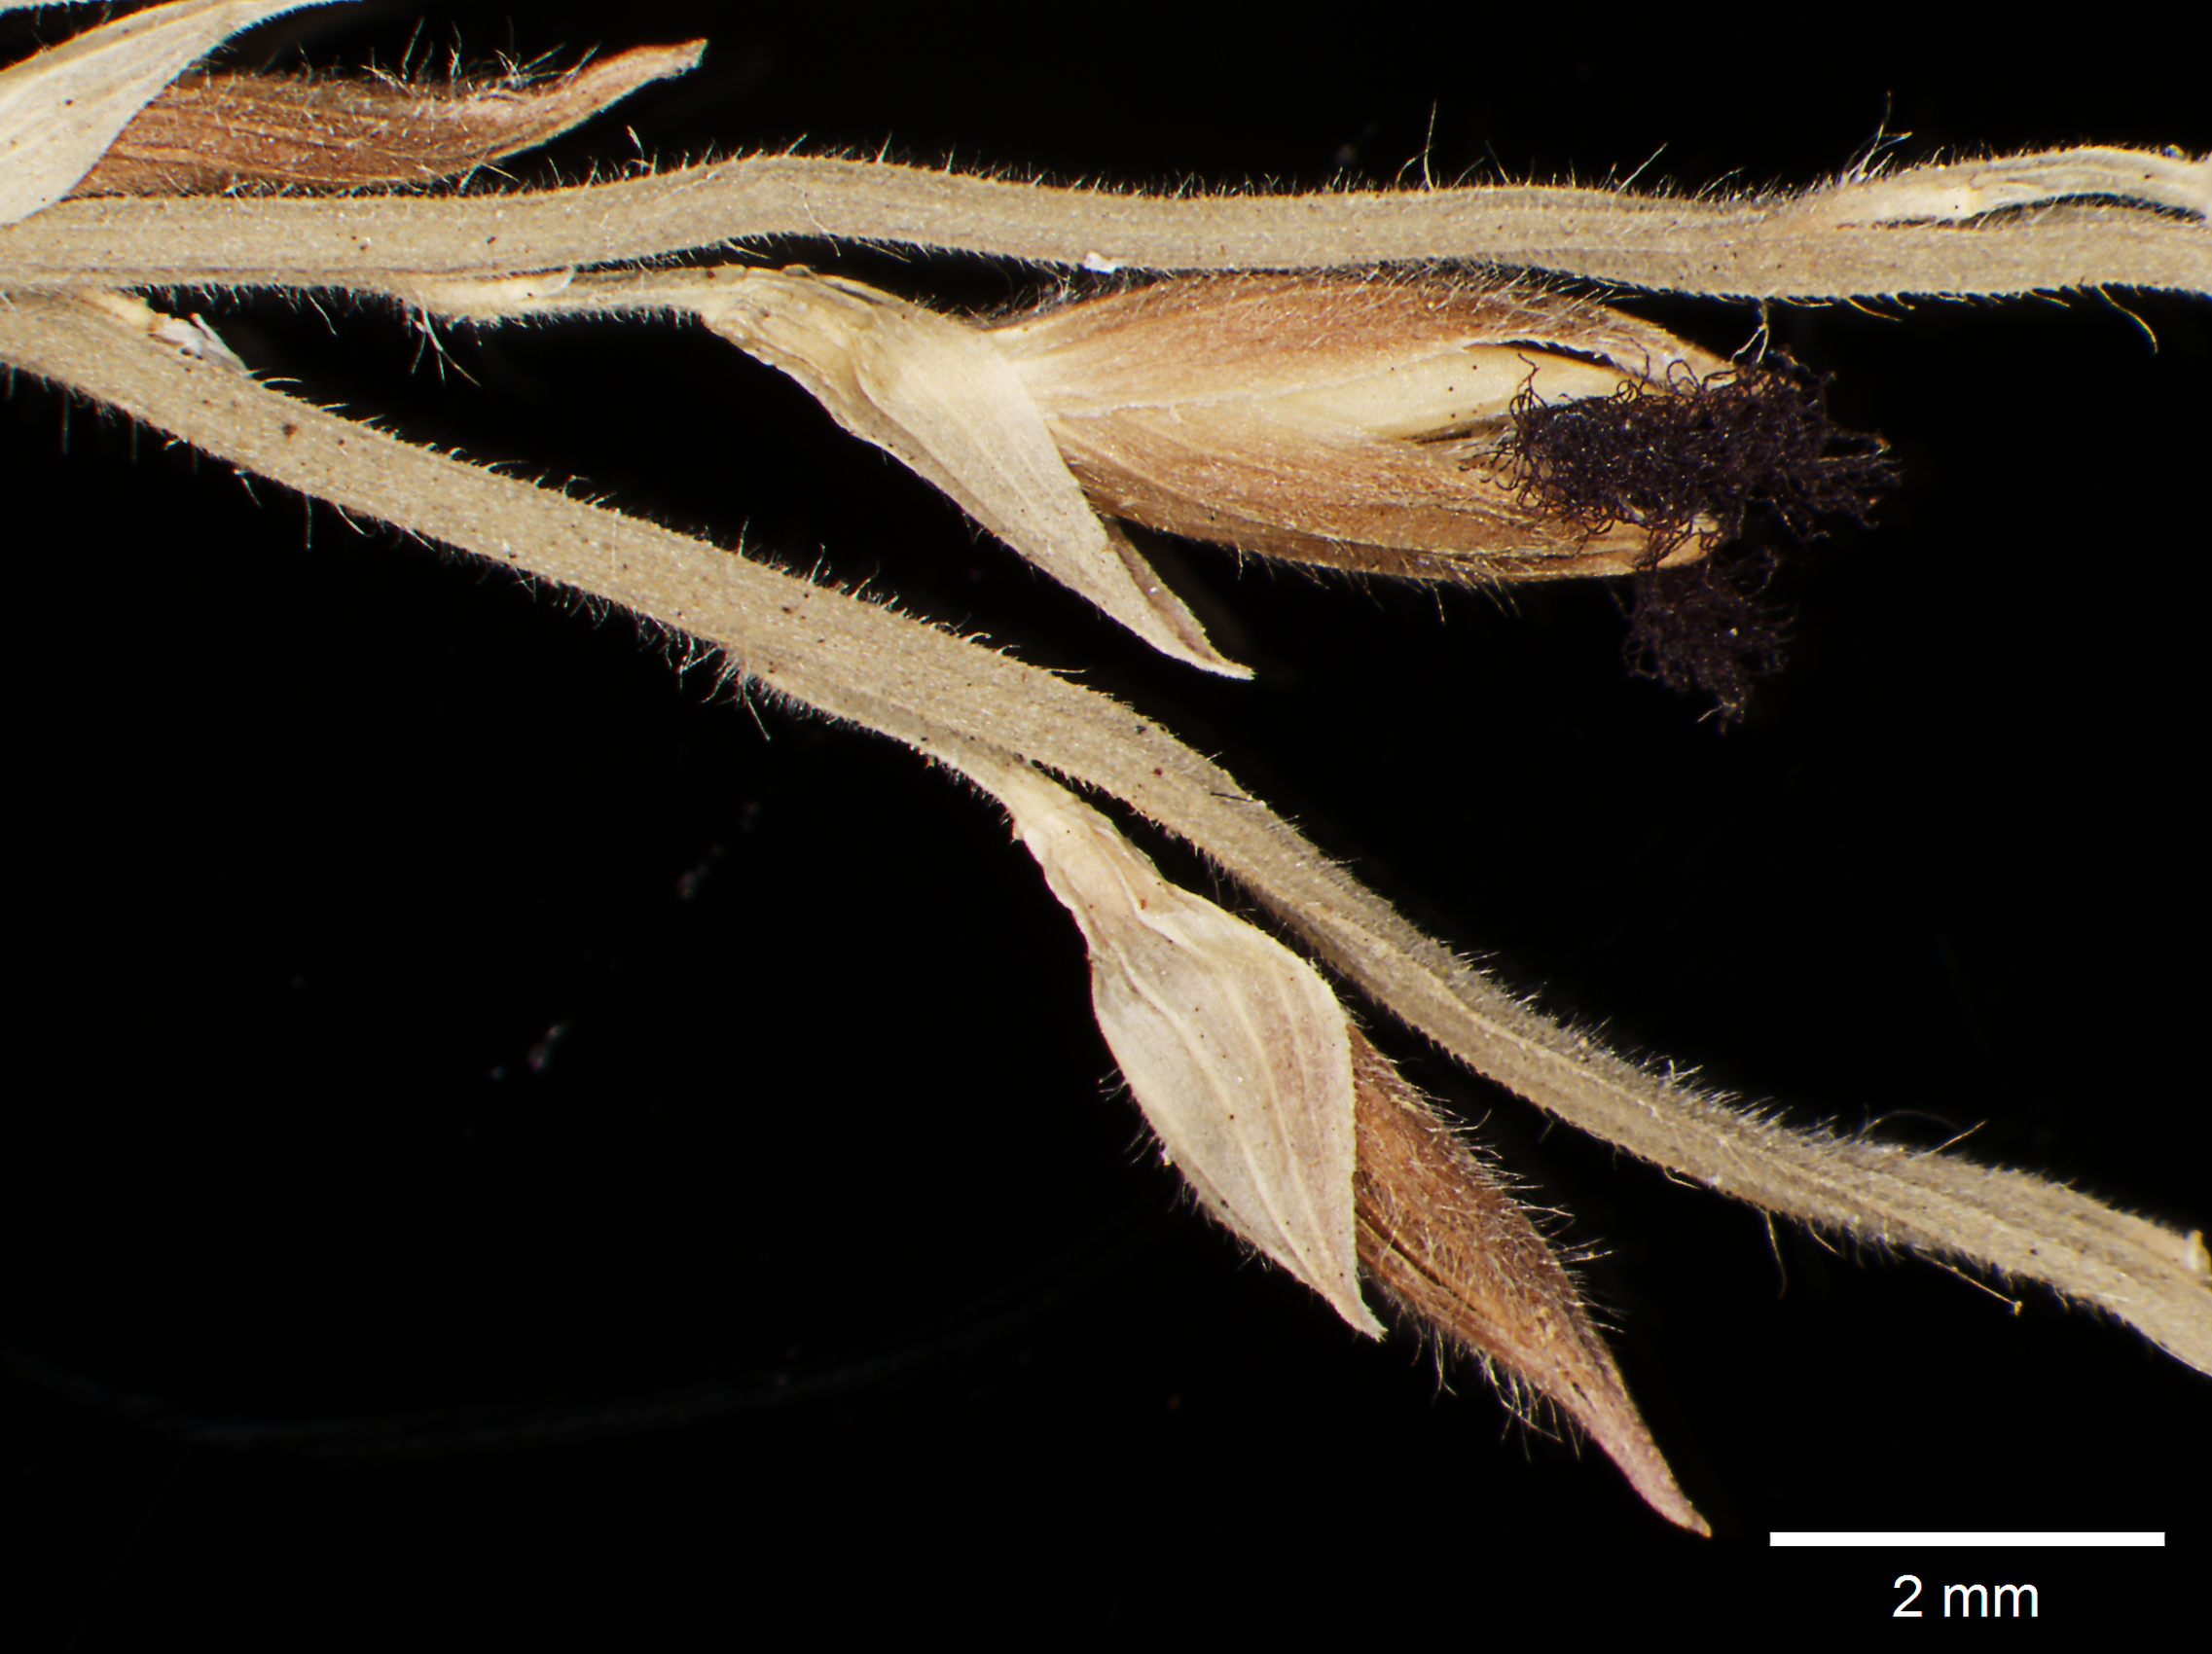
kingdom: Plantae
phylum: Tracheophyta
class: Liliopsida
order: Poales
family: Poaceae
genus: Scutachne
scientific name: Scutachne dura
